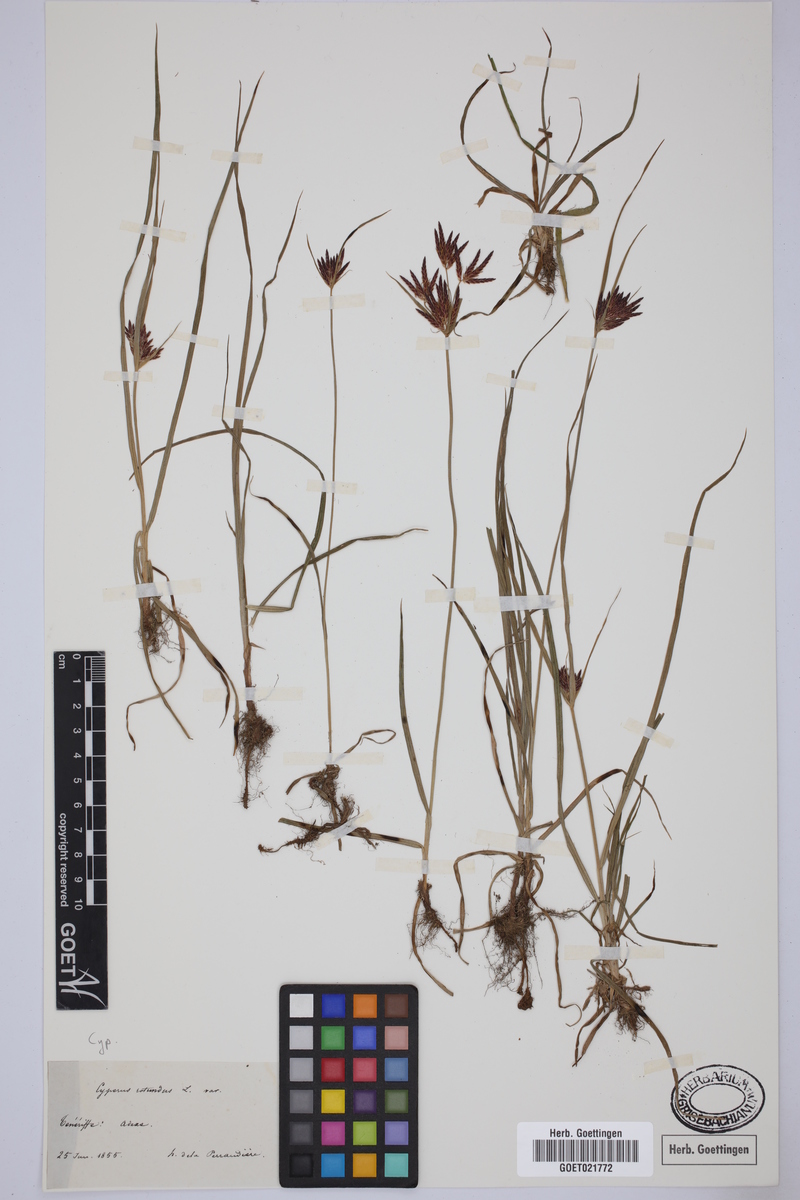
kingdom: Plantae
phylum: Tracheophyta
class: Liliopsida
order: Poales
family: Cyperaceae
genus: Cyperus
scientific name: Cyperus rotundus
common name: Nutgrass
